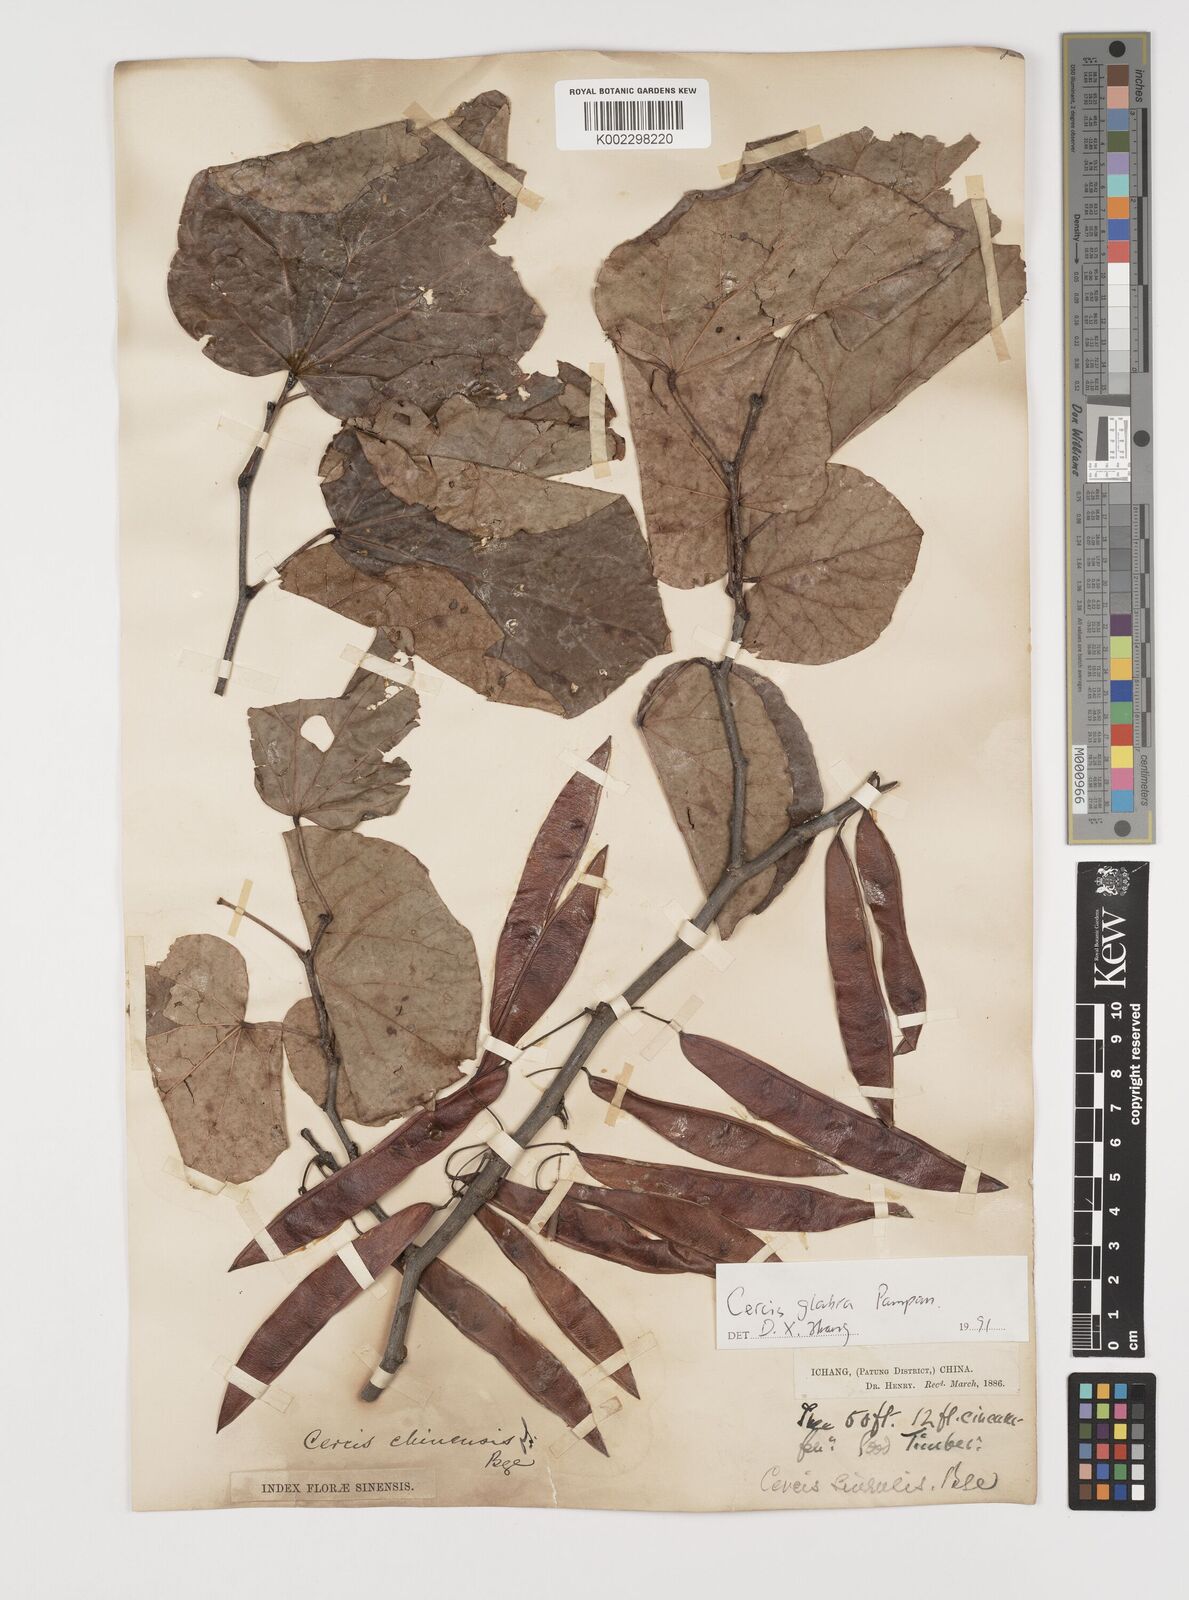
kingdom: Plantae
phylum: Tracheophyta
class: Magnoliopsida
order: Fabales
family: Fabaceae
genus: Cercis
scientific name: Cercis glabra
